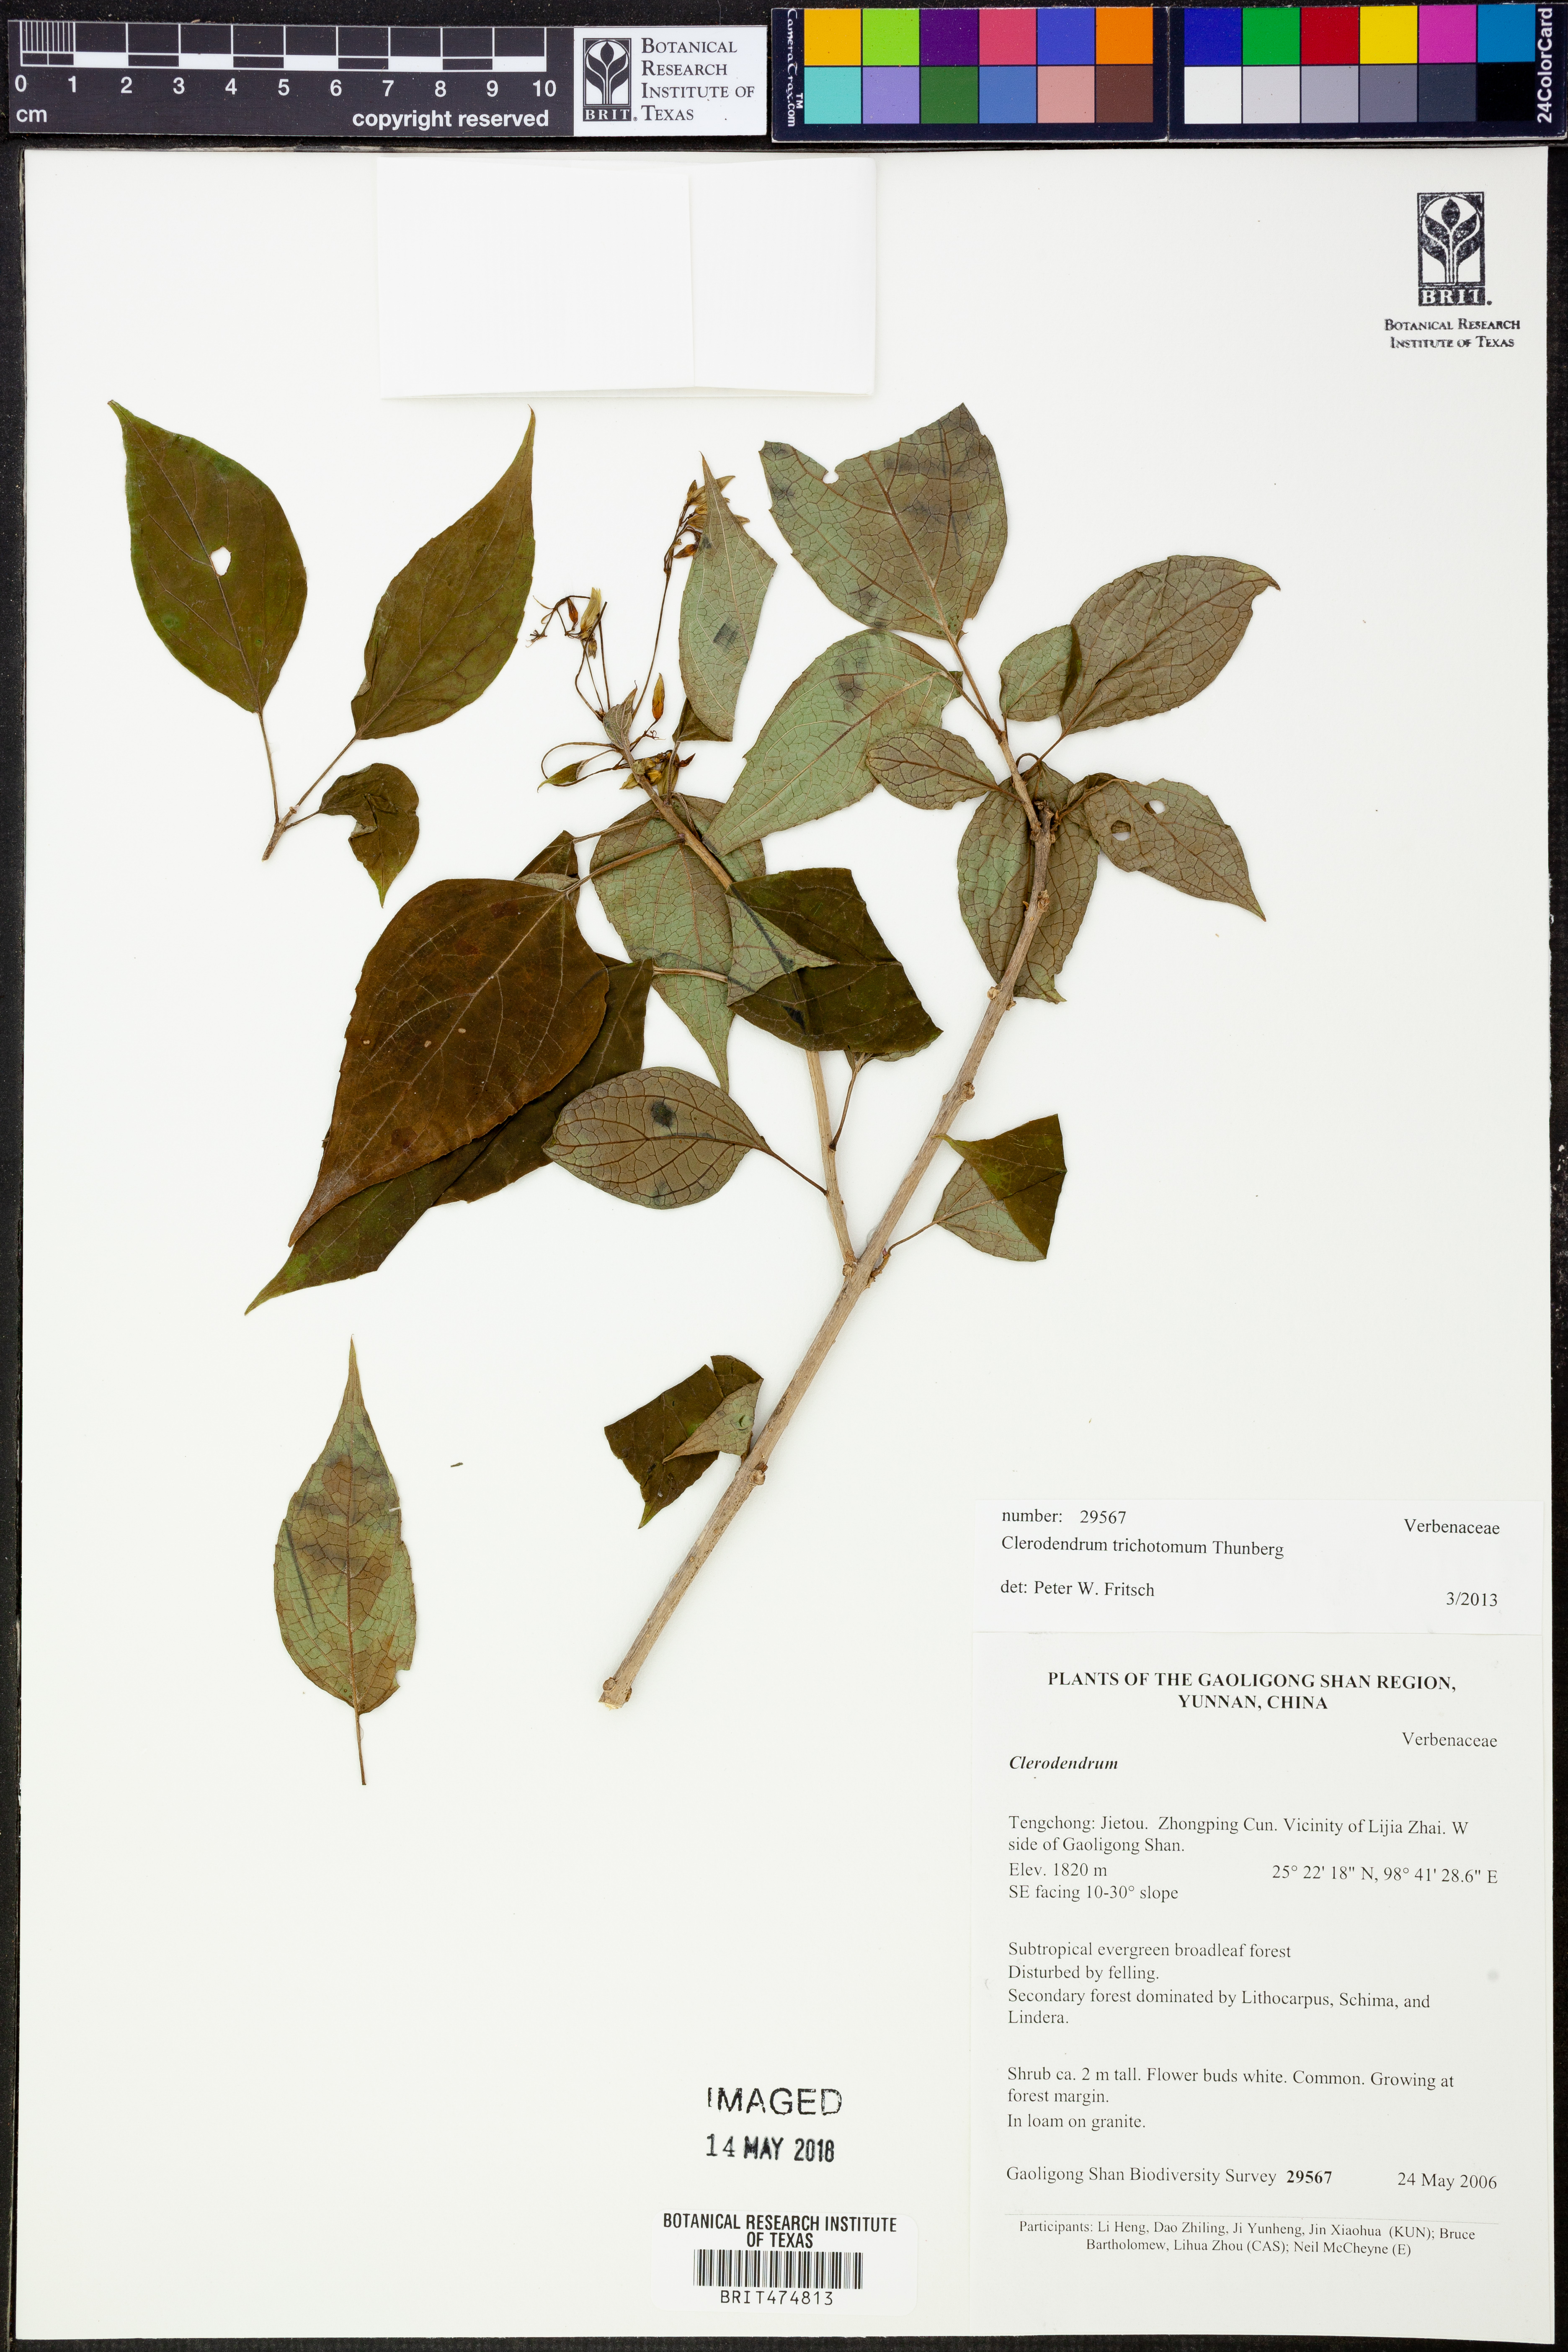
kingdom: Plantae
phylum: Tracheophyta
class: Magnoliopsida
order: Lamiales
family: Lamiaceae
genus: Clerodendrum
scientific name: Clerodendrum trichotomum
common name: Harlequin glorybower
